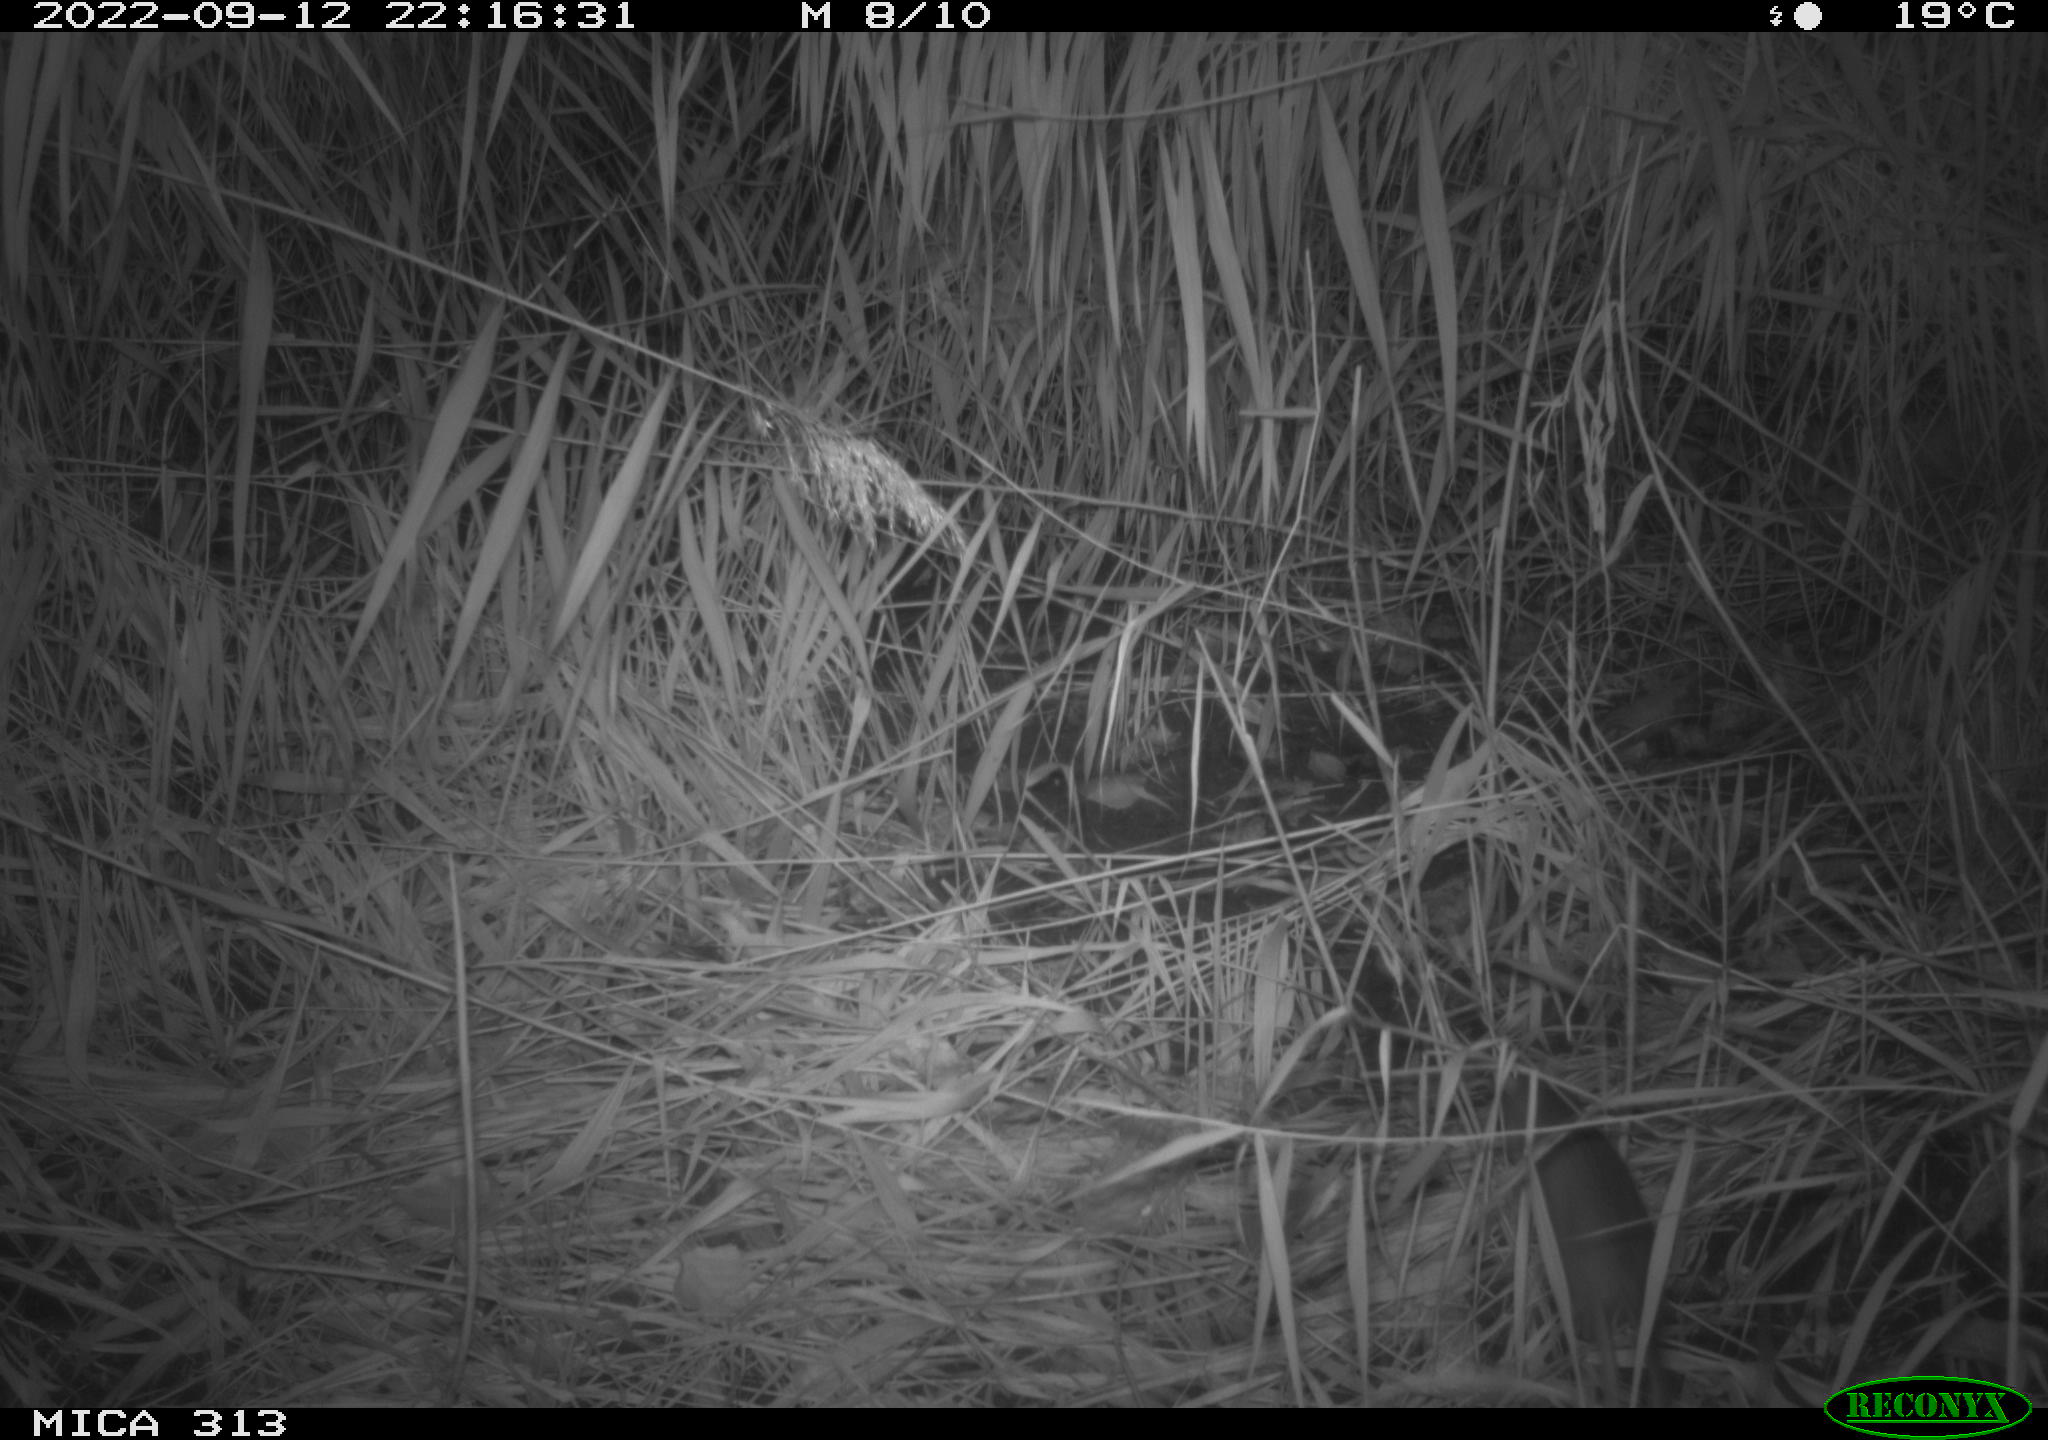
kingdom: Animalia
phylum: Chordata
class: Mammalia
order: Rodentia
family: Muridae
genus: Rattus
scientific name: Rattus norvegicus
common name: Brown rat
